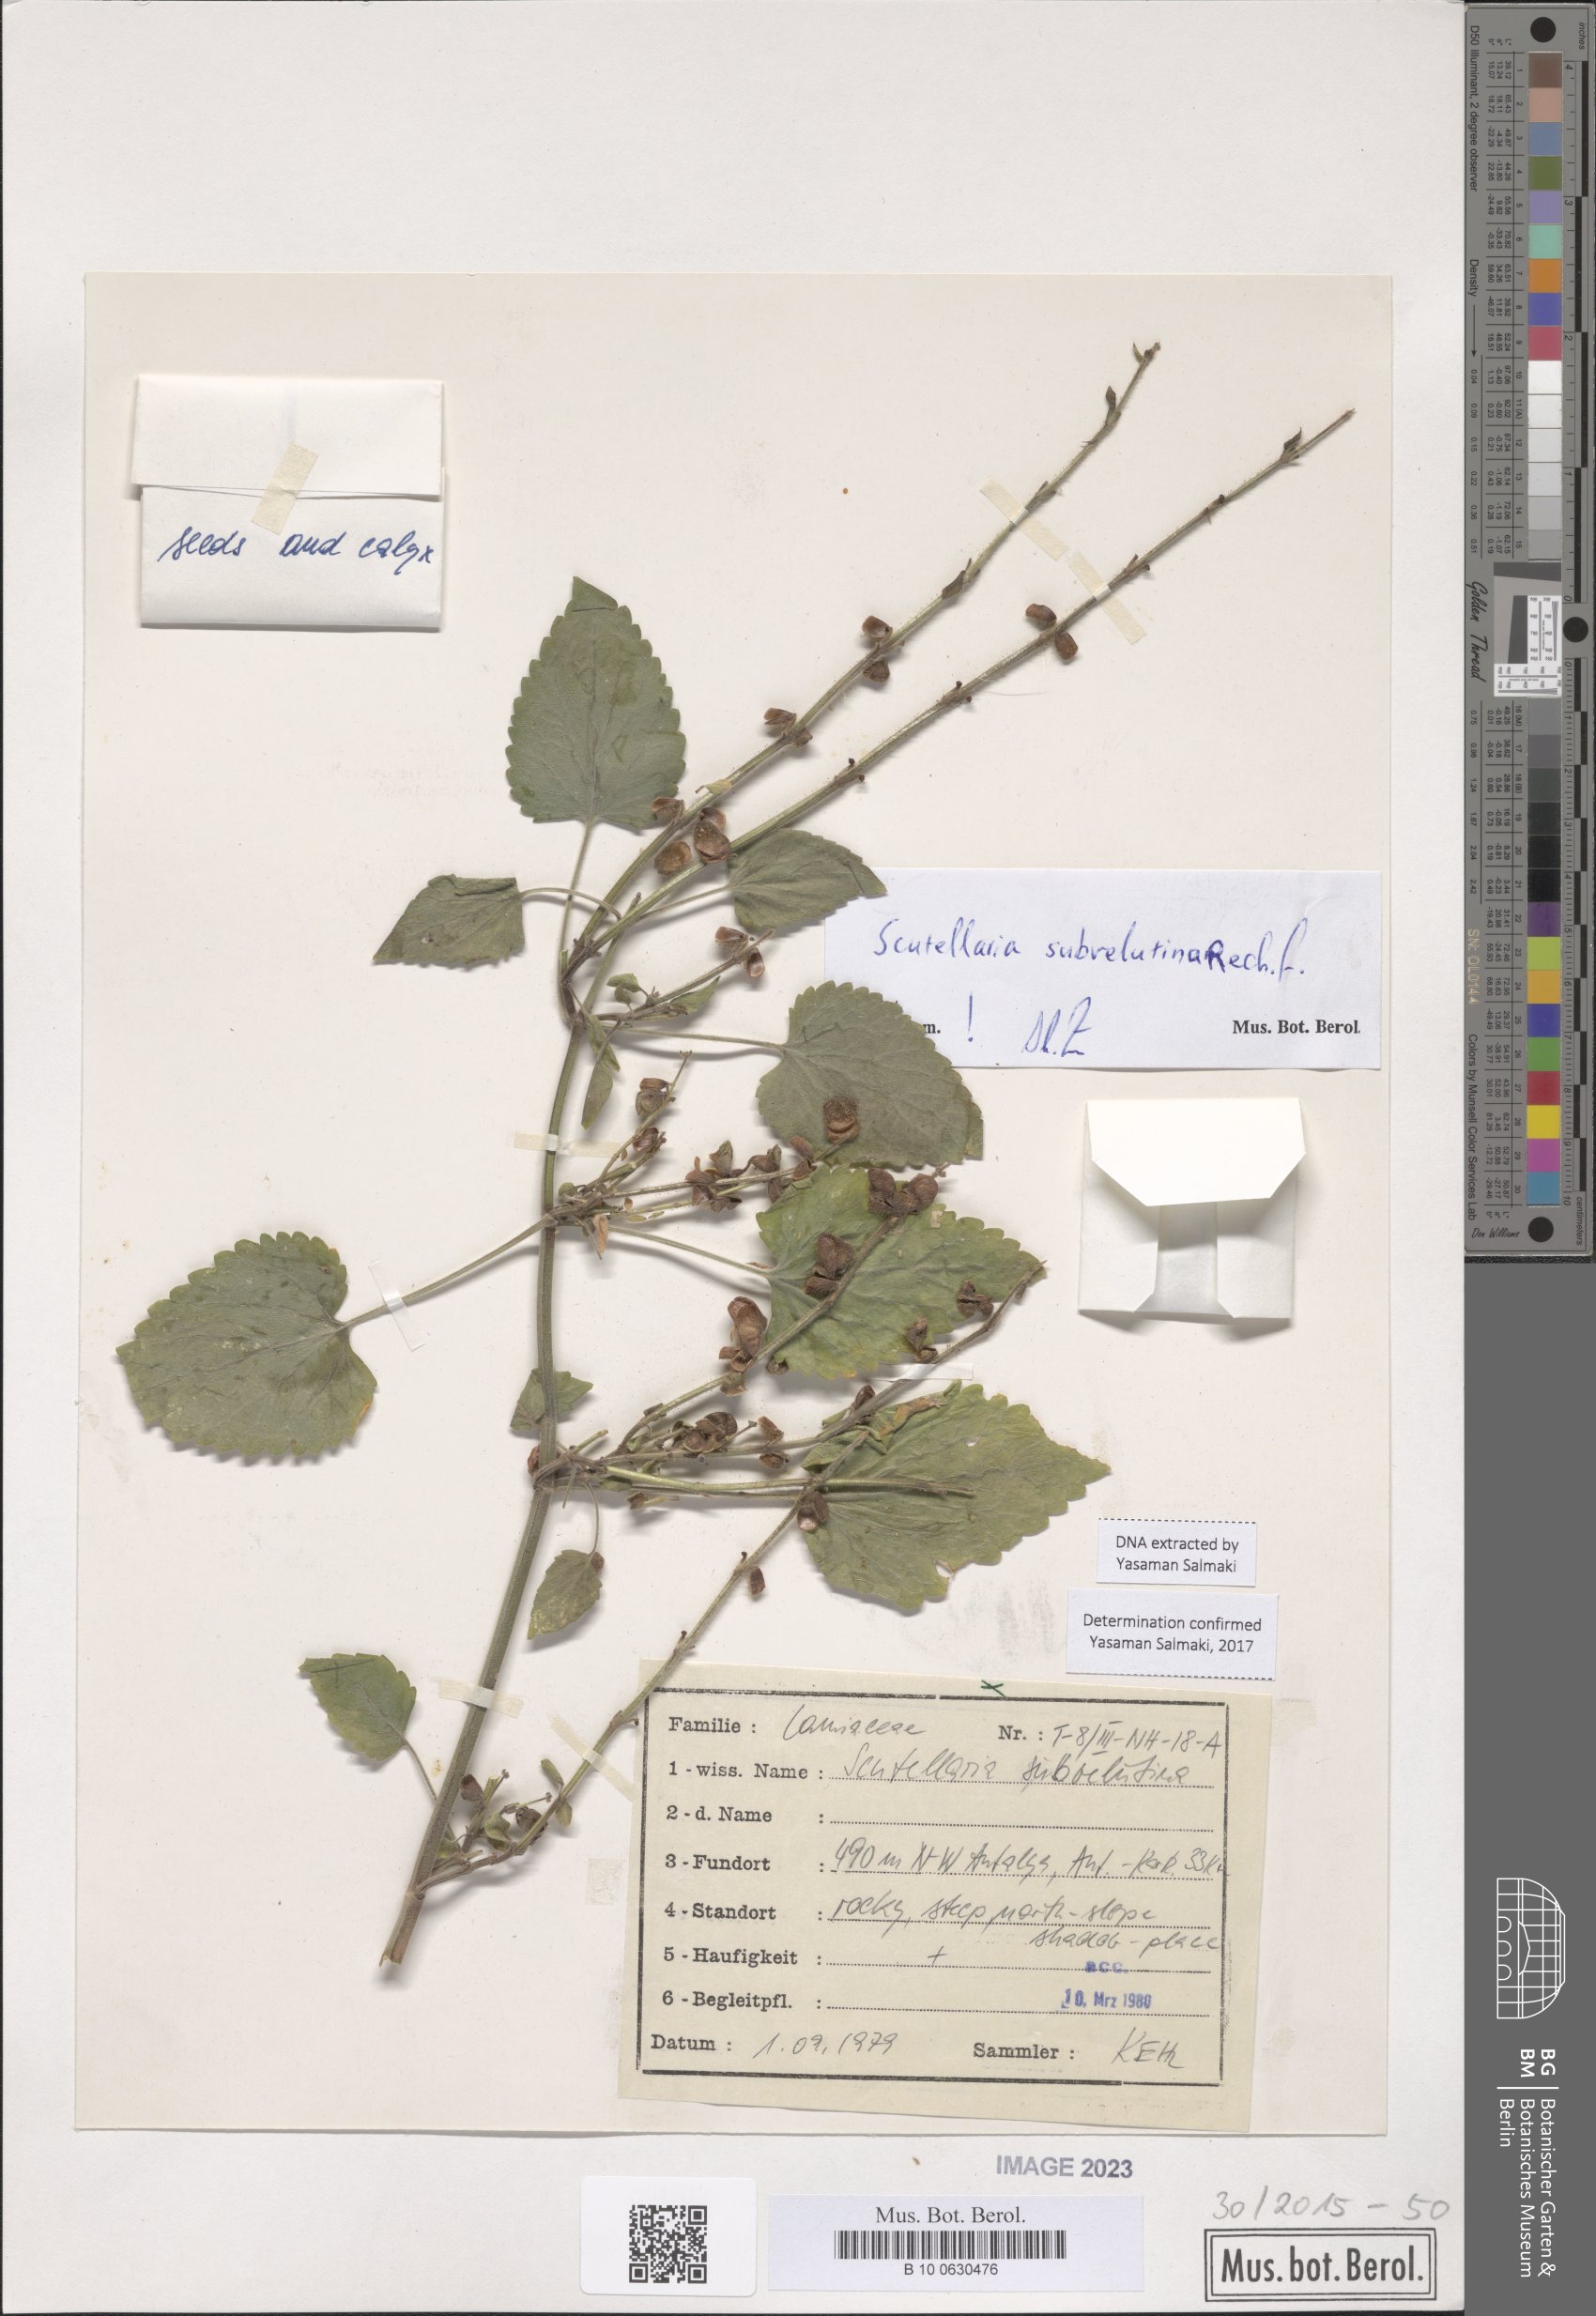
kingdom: Plantae
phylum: Tracheophyta
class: Magnoliopsida
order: Lamiales
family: Lamiaceae
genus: Scutellaria
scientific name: Scutellaria brevibracteata
